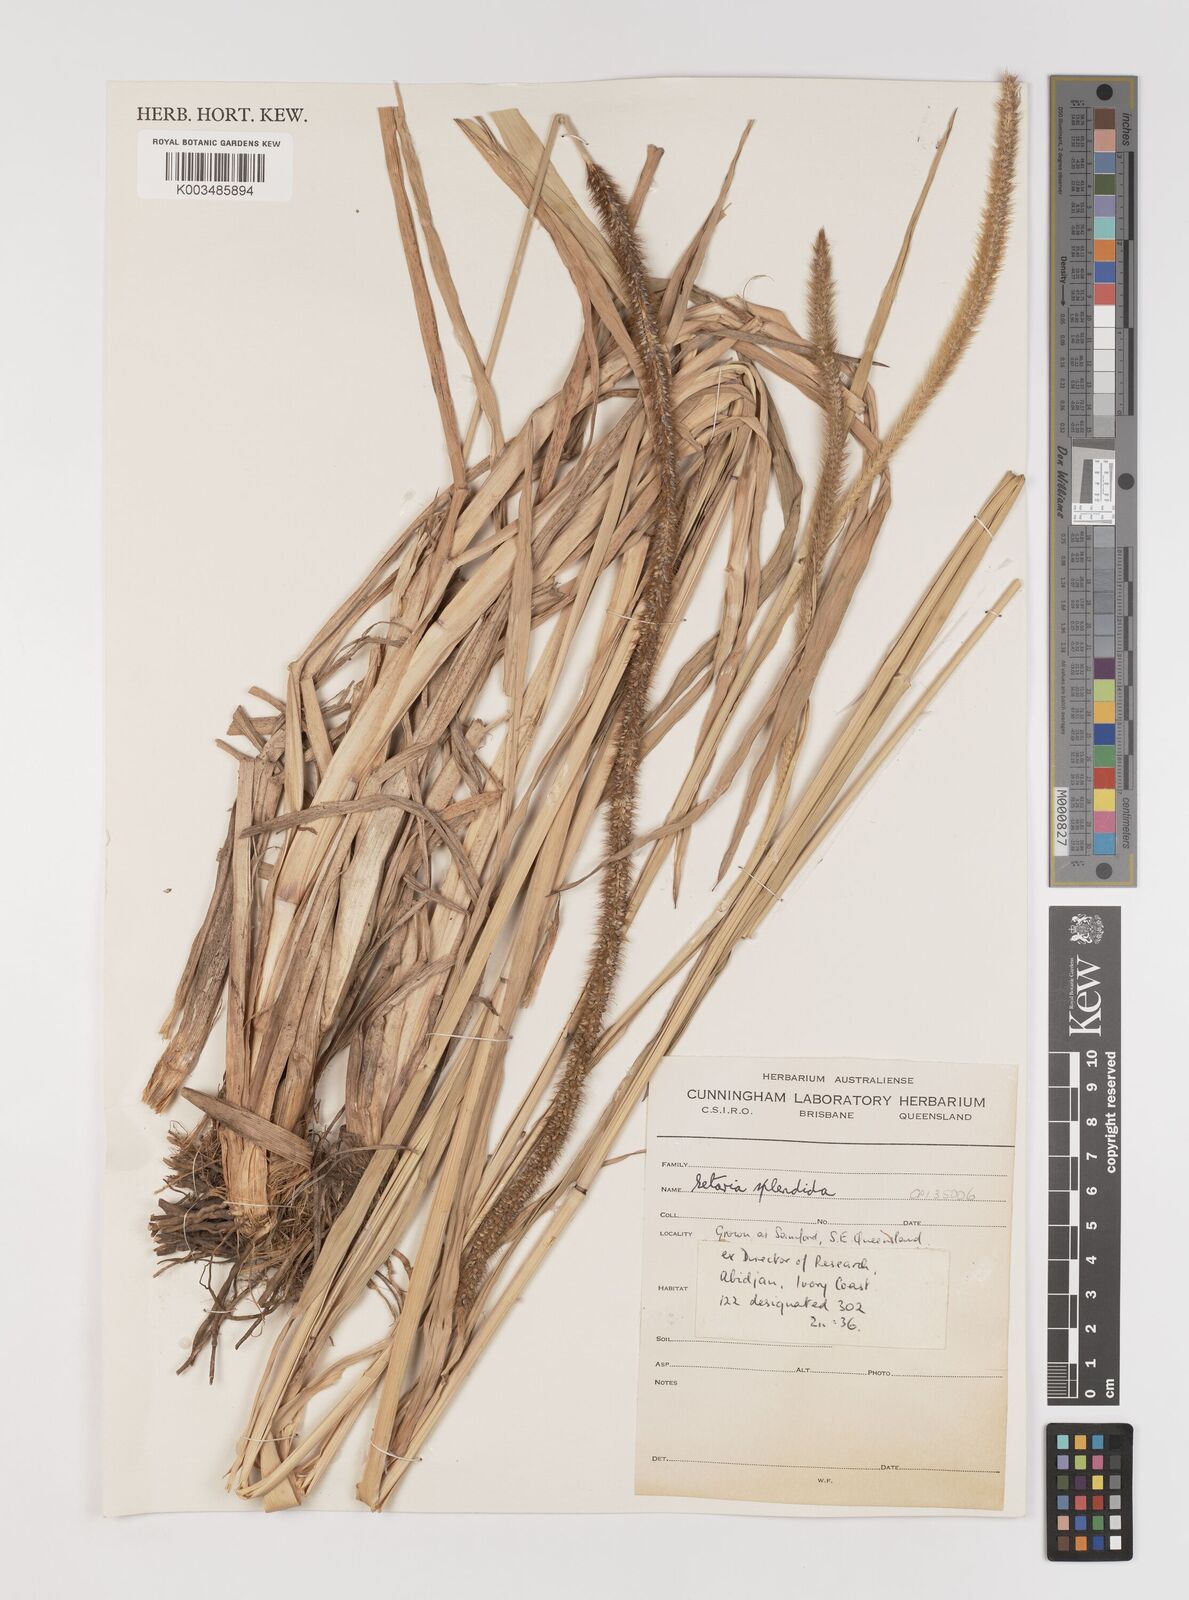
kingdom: Plantae
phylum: Tracheophyta
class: Liliopsida
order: Poales
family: Poaceae
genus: Setaria
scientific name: Setaria sphacelata
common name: African bristlegrass
